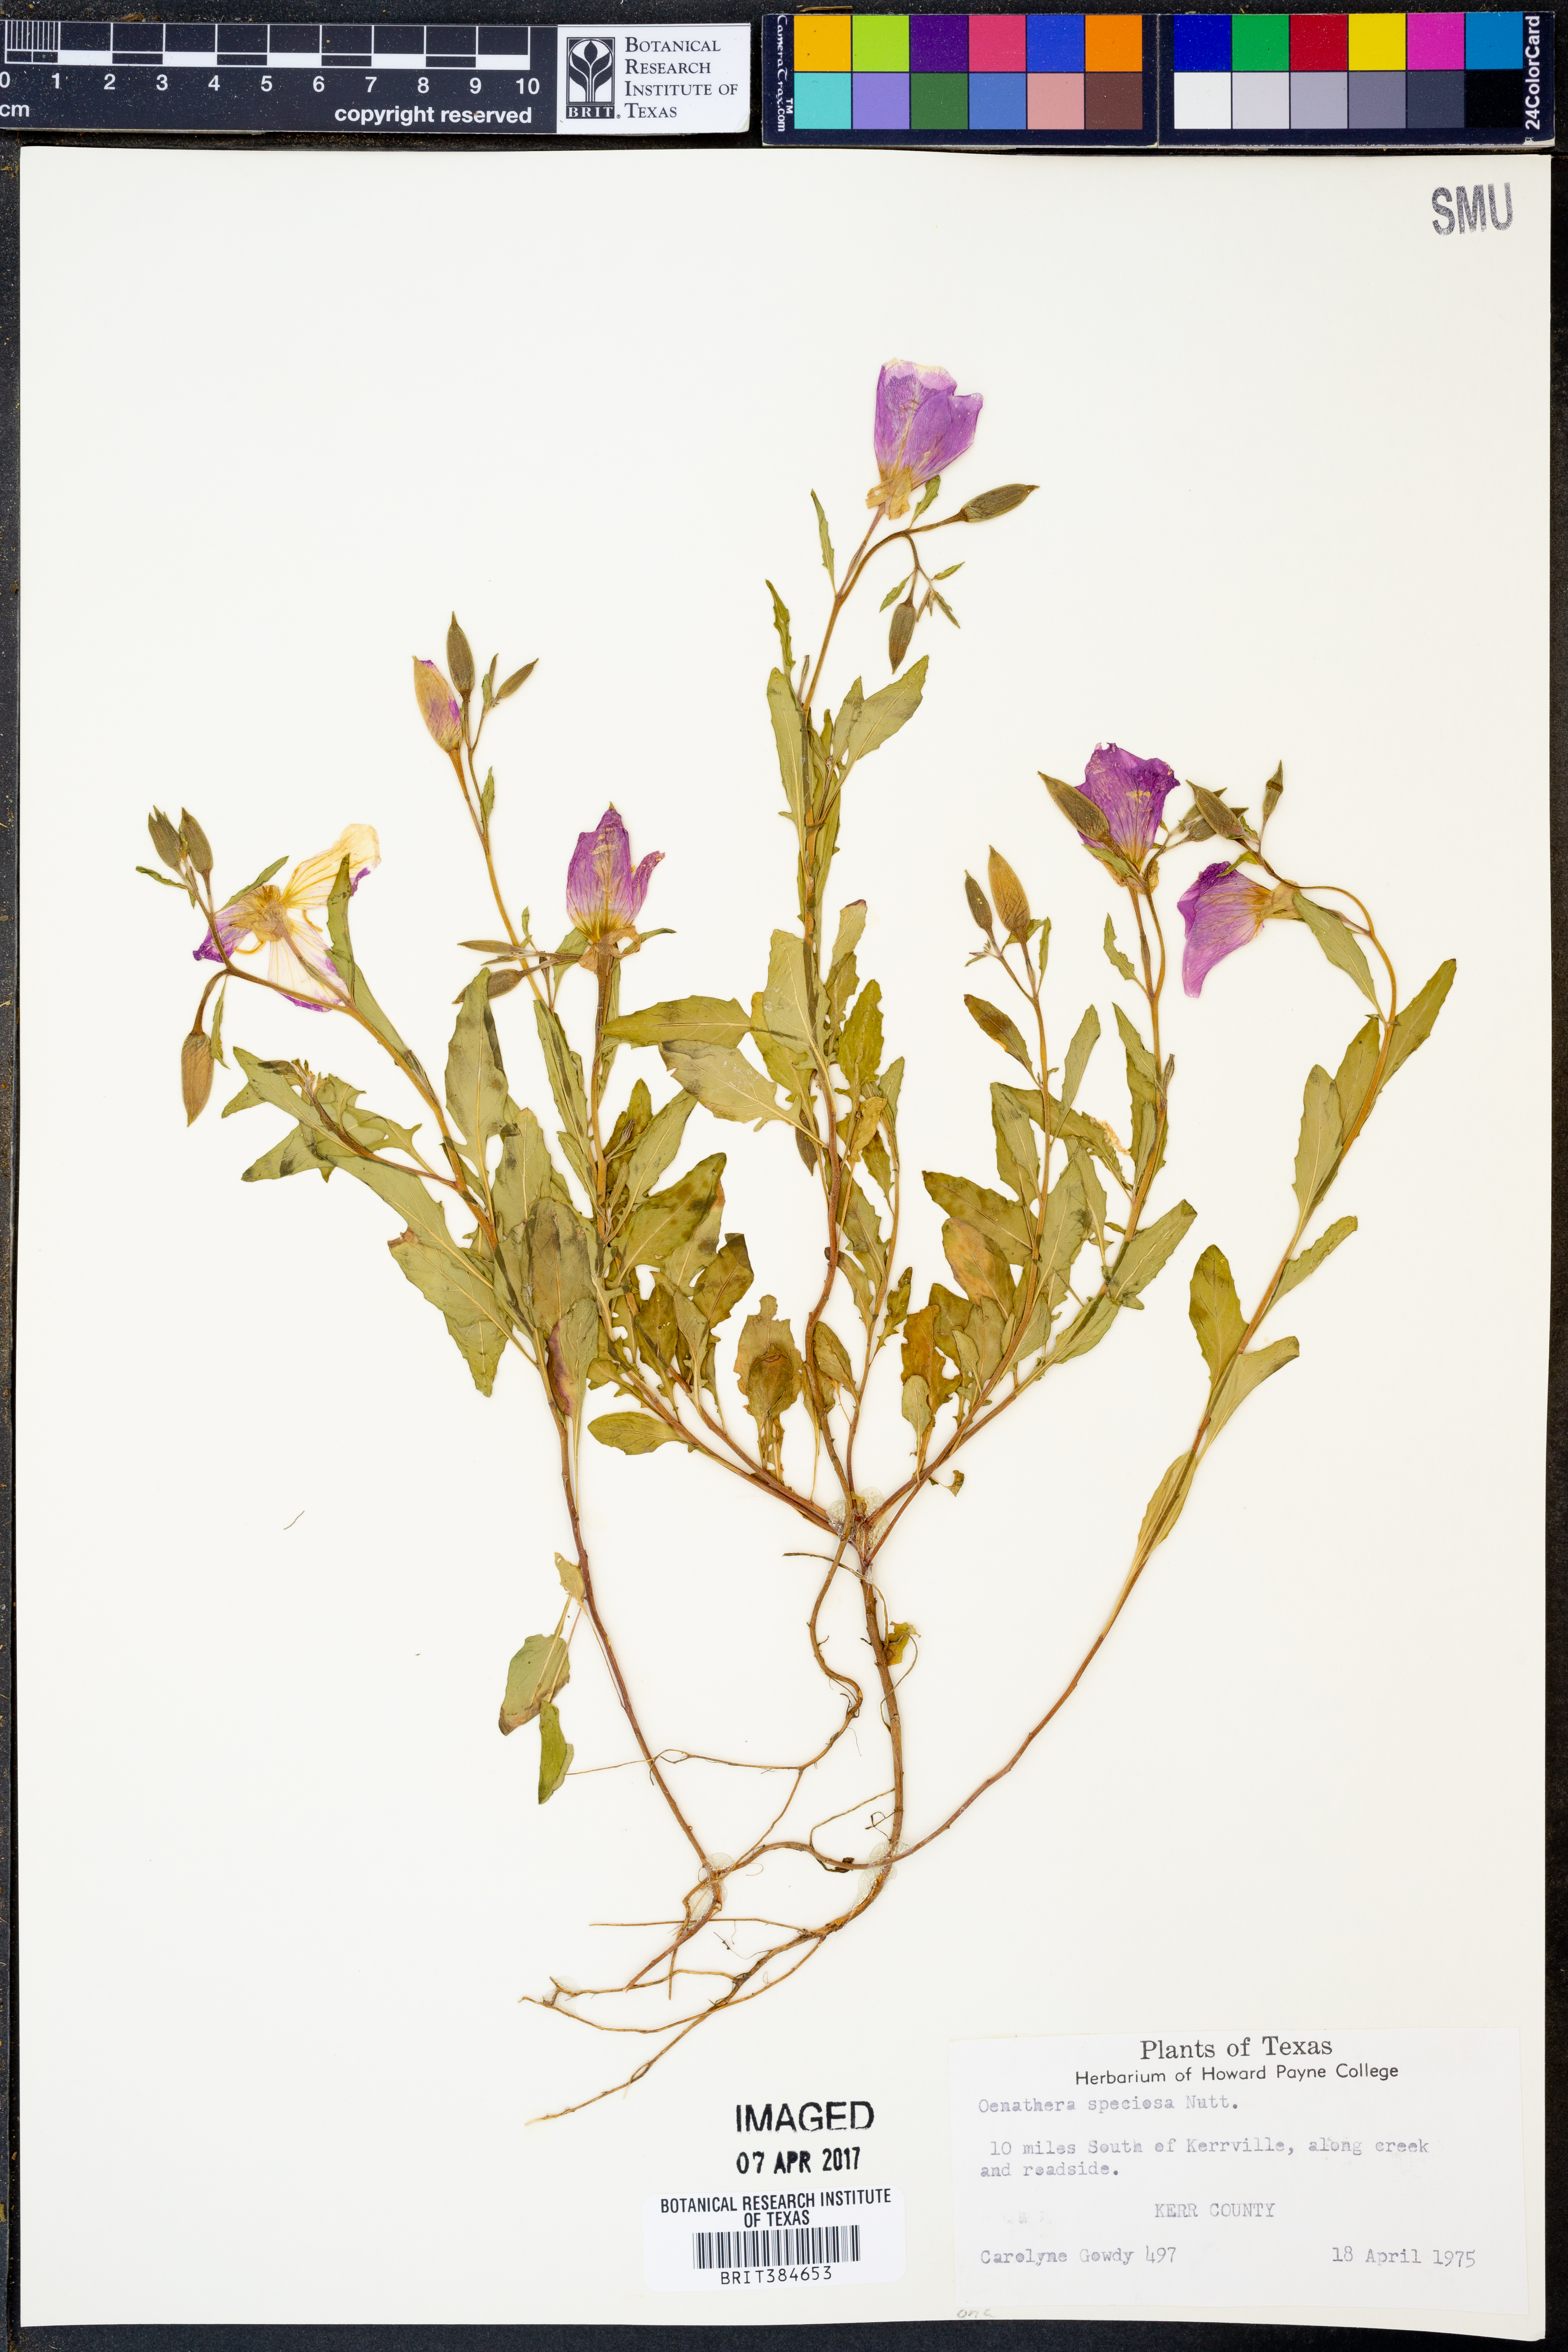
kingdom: Plantae
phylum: Tracheophyta
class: Magnoliopsida
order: Myrtales
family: Onagraceae
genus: Oenothera
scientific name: Oenothera speciosa
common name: White evening-primrose
